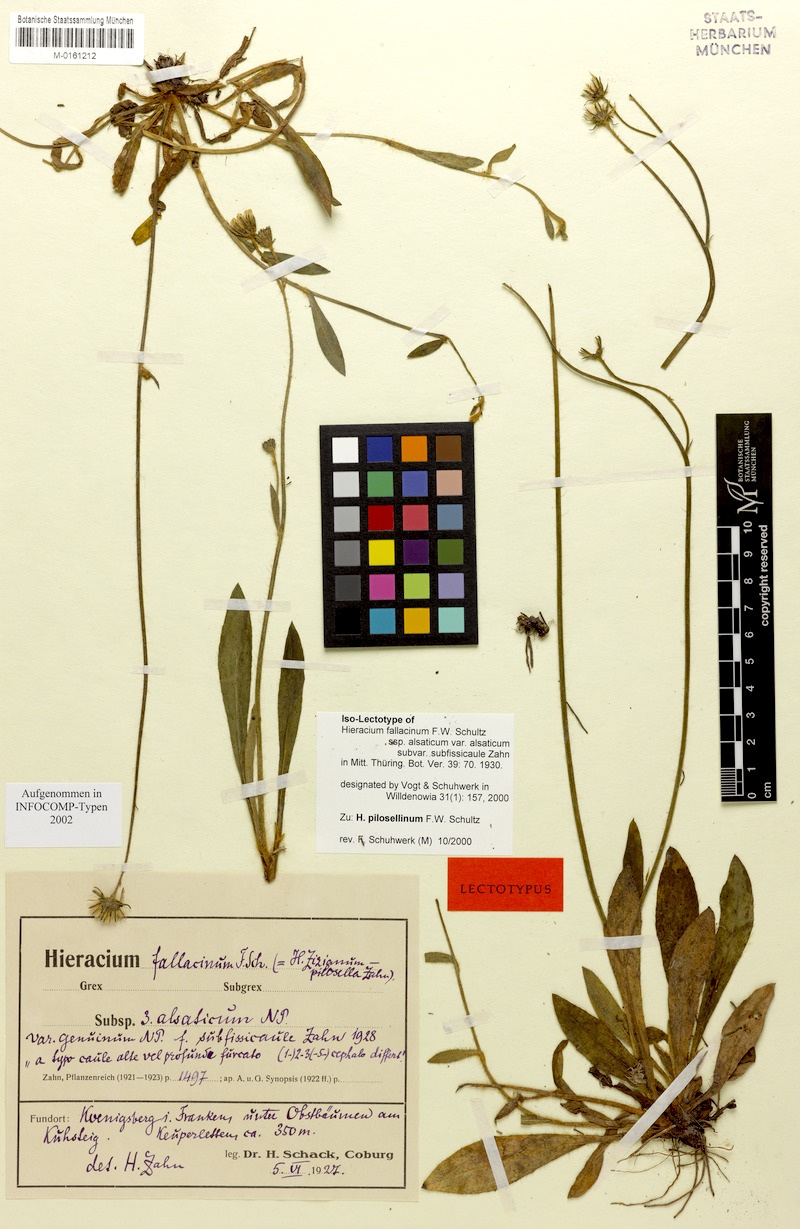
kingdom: Plantae
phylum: Tracheophyta
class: Magnoliopsida
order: Asterales
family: Asteraceae
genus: Pilosella
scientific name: Pilosella pilosellina
